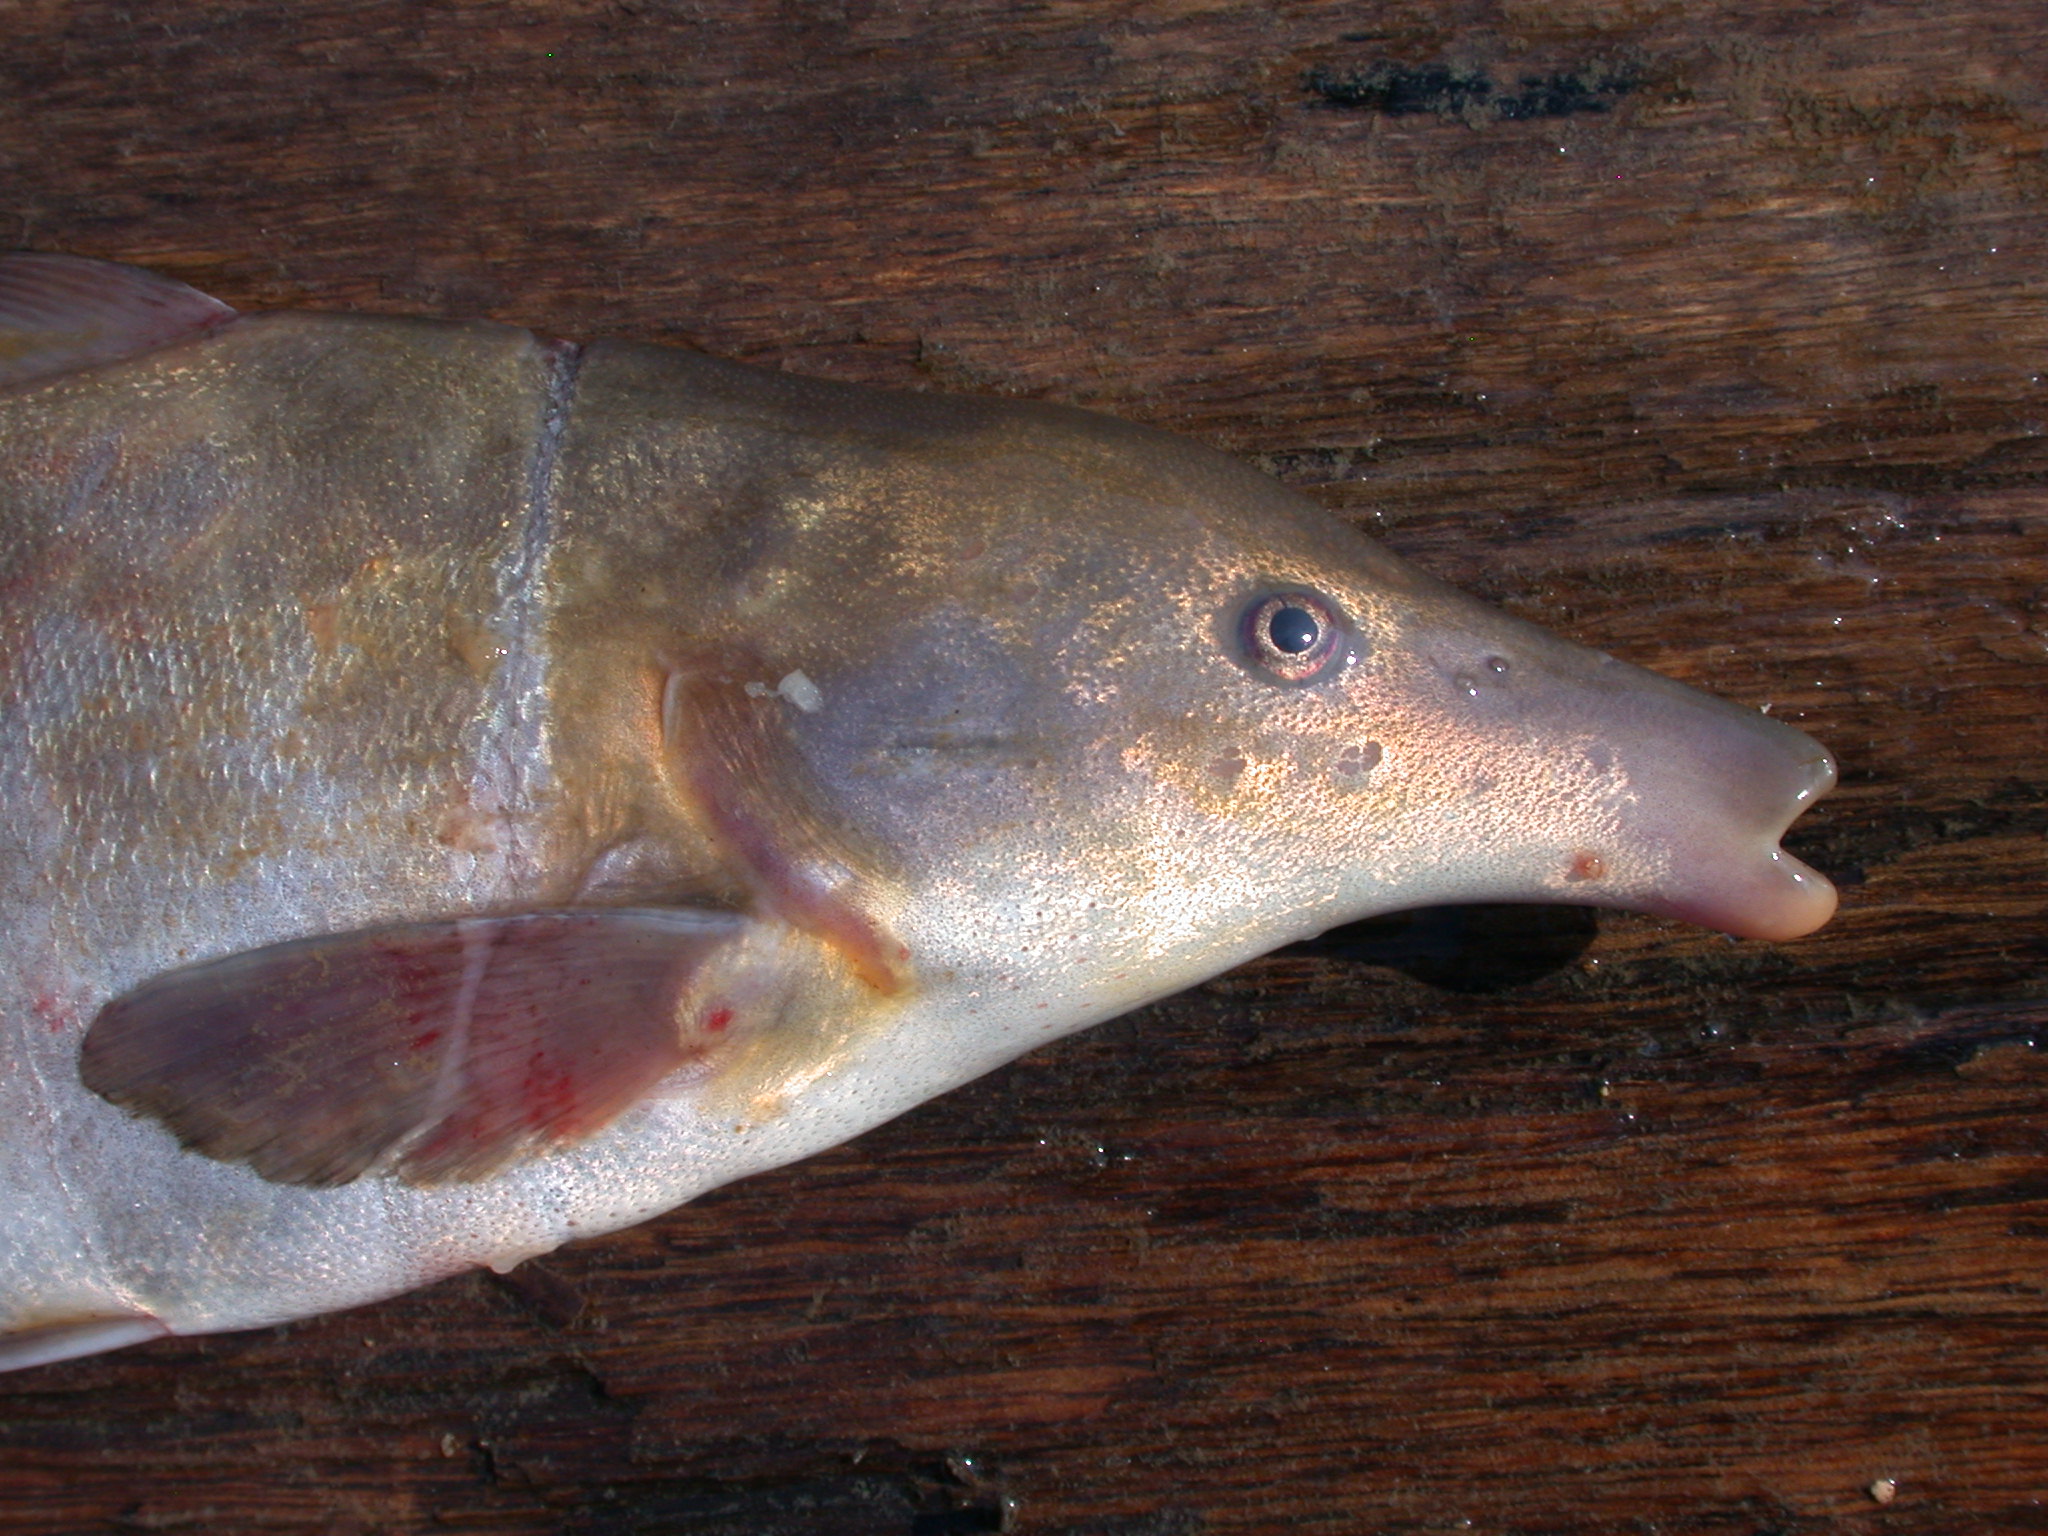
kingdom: Animalia
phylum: Chordata
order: Osteoglossiformes
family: Mormyridae
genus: Mormyrus
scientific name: Mormyrus longirostris
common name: Eastern bottlenose
